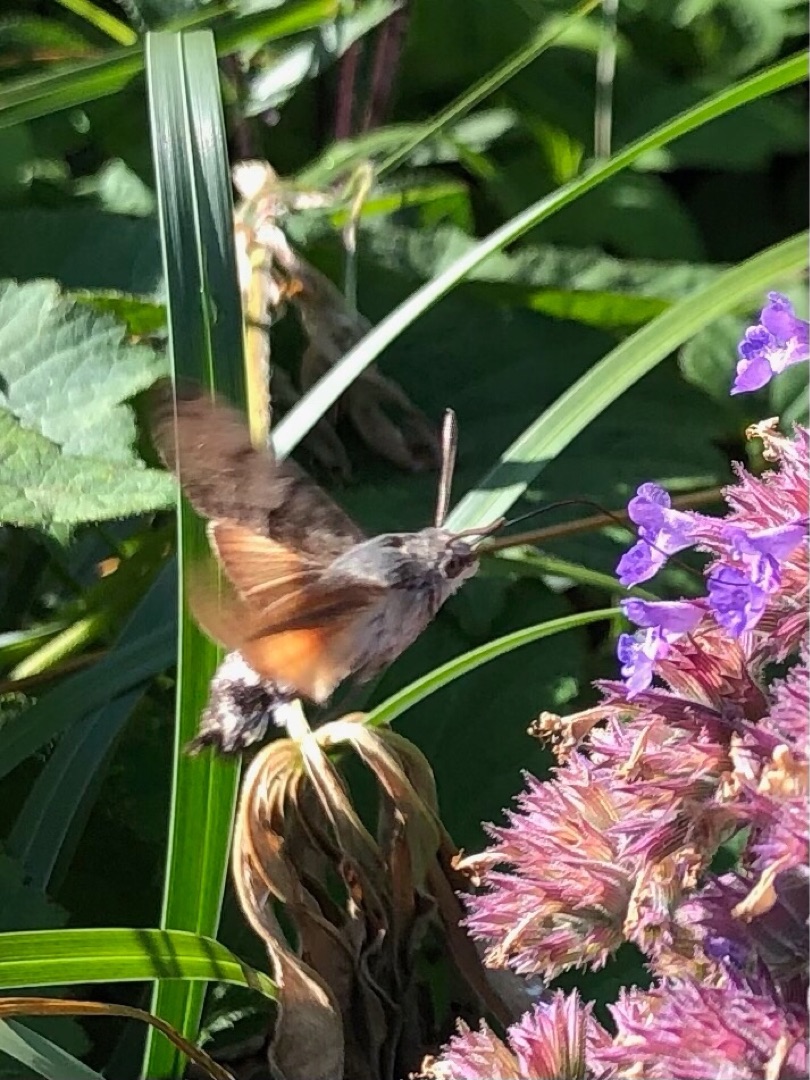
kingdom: Animalia
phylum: Arthropoda
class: Insecta
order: Lepidoptera
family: Sphingidae
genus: Macroglossum
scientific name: Macroglossum stellatarum
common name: Duehale
